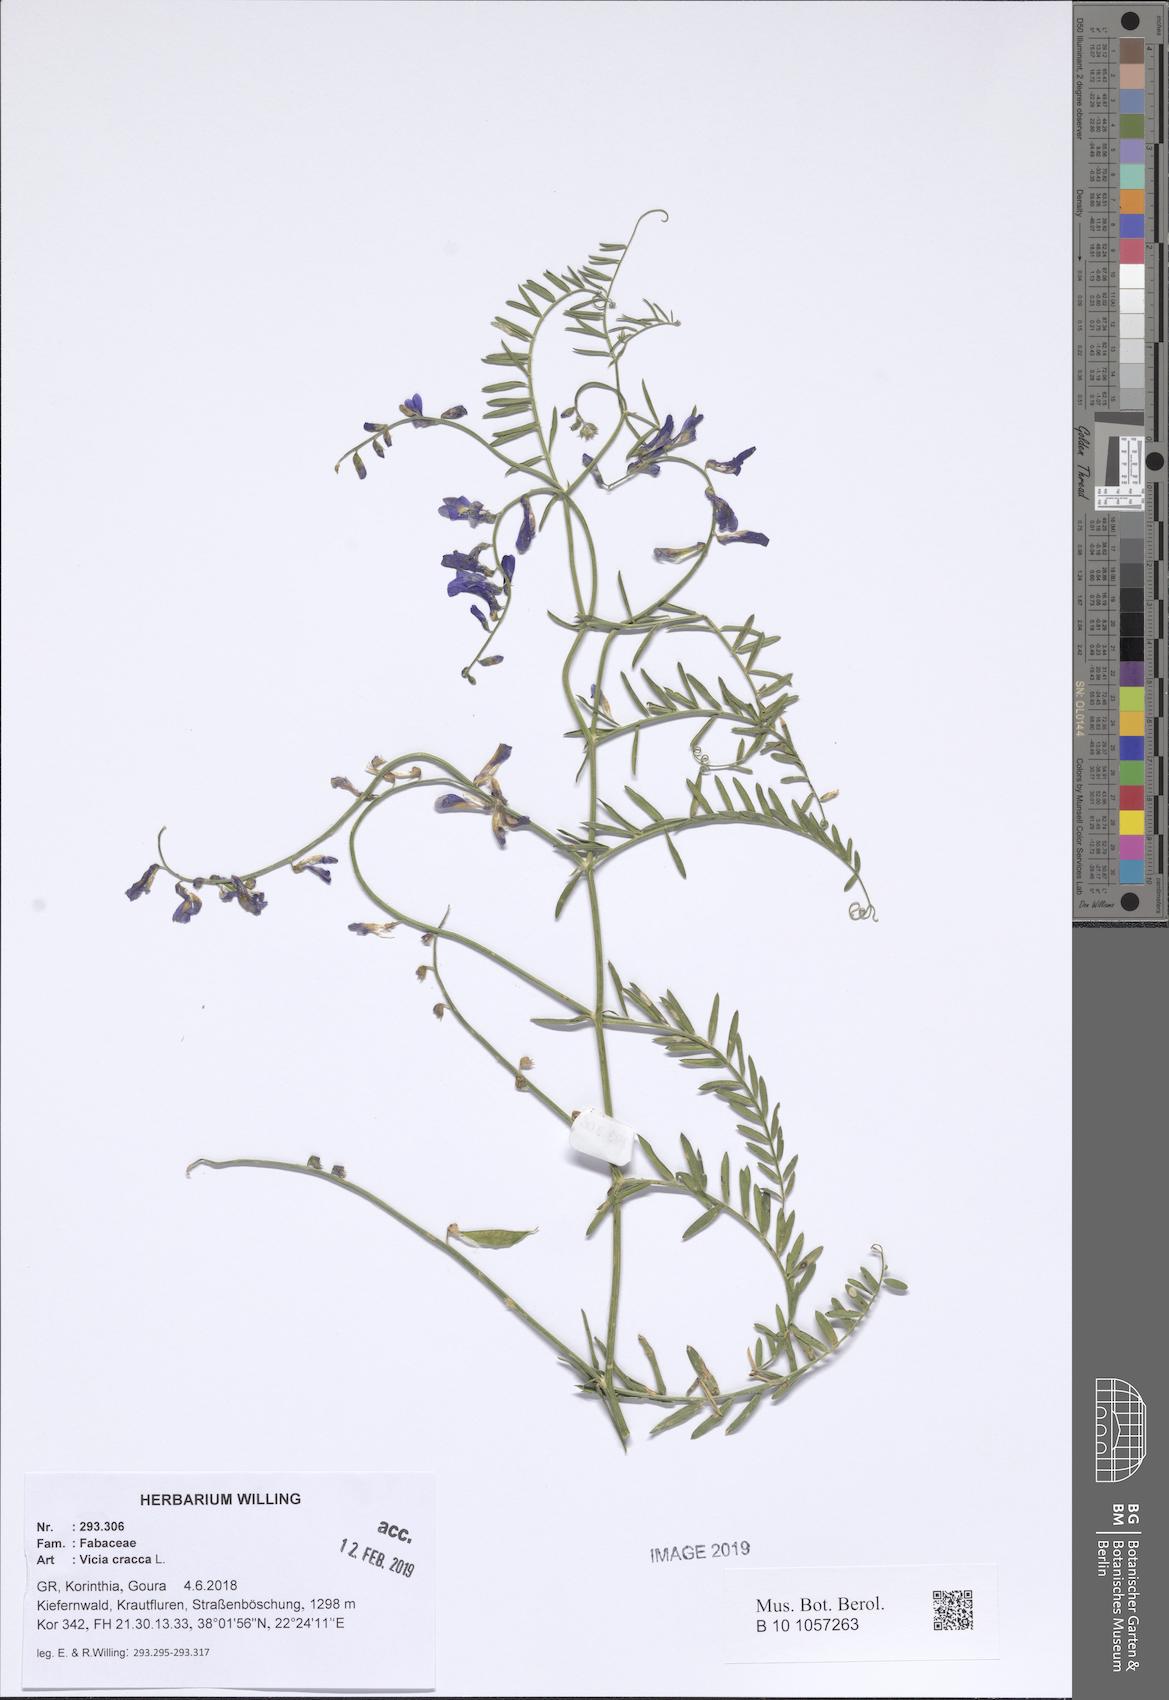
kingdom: Plantae
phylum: Tracheophyta
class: Magnoliopsida
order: Fabales
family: Fabaceae
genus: Vicia
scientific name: Vicia cracca
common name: Bird vetch
